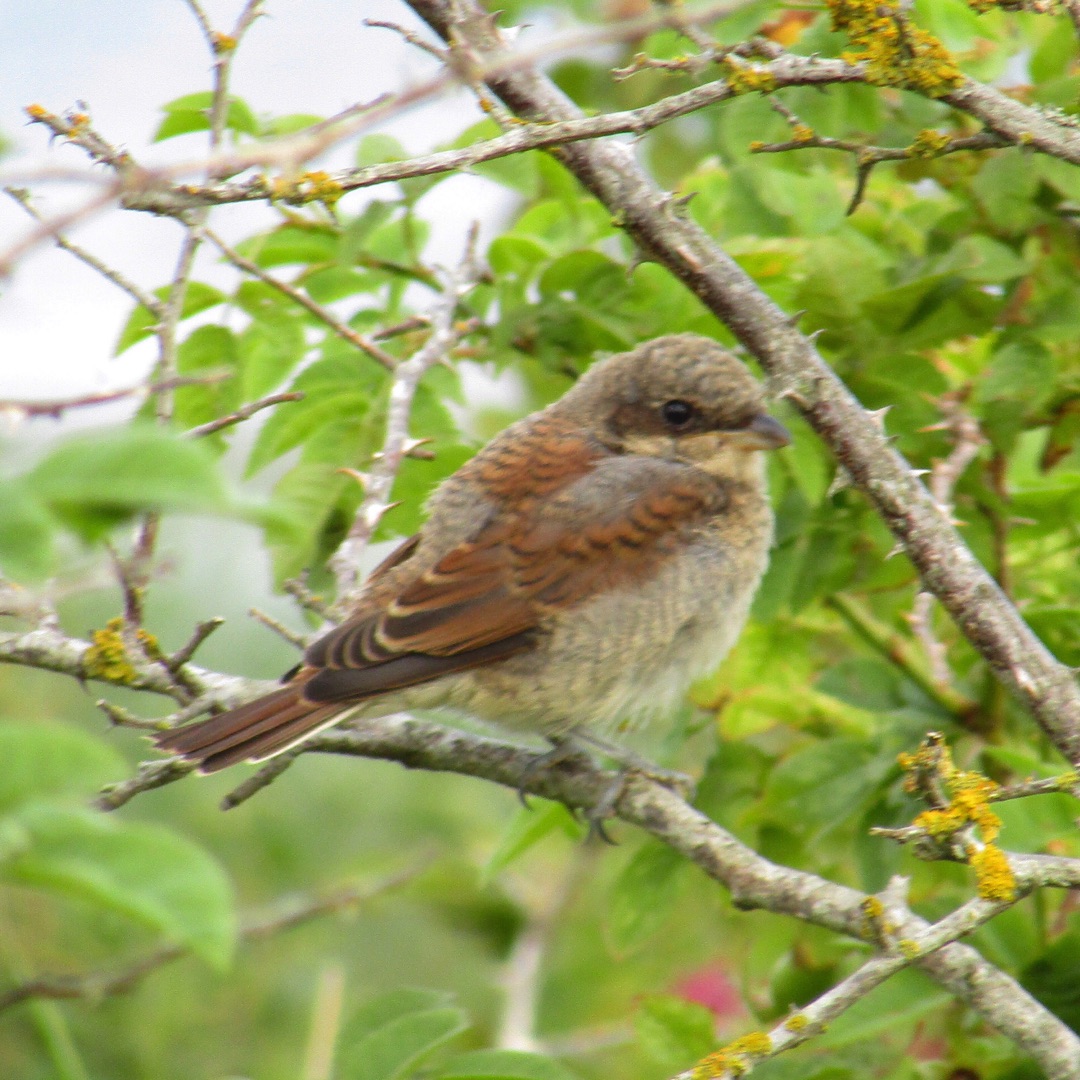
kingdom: Animalia
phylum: Chordata
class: Aves
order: Passeriformes
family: Laniidae
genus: Lanius
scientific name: Lanius collurio
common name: Rødrygget tornskade
